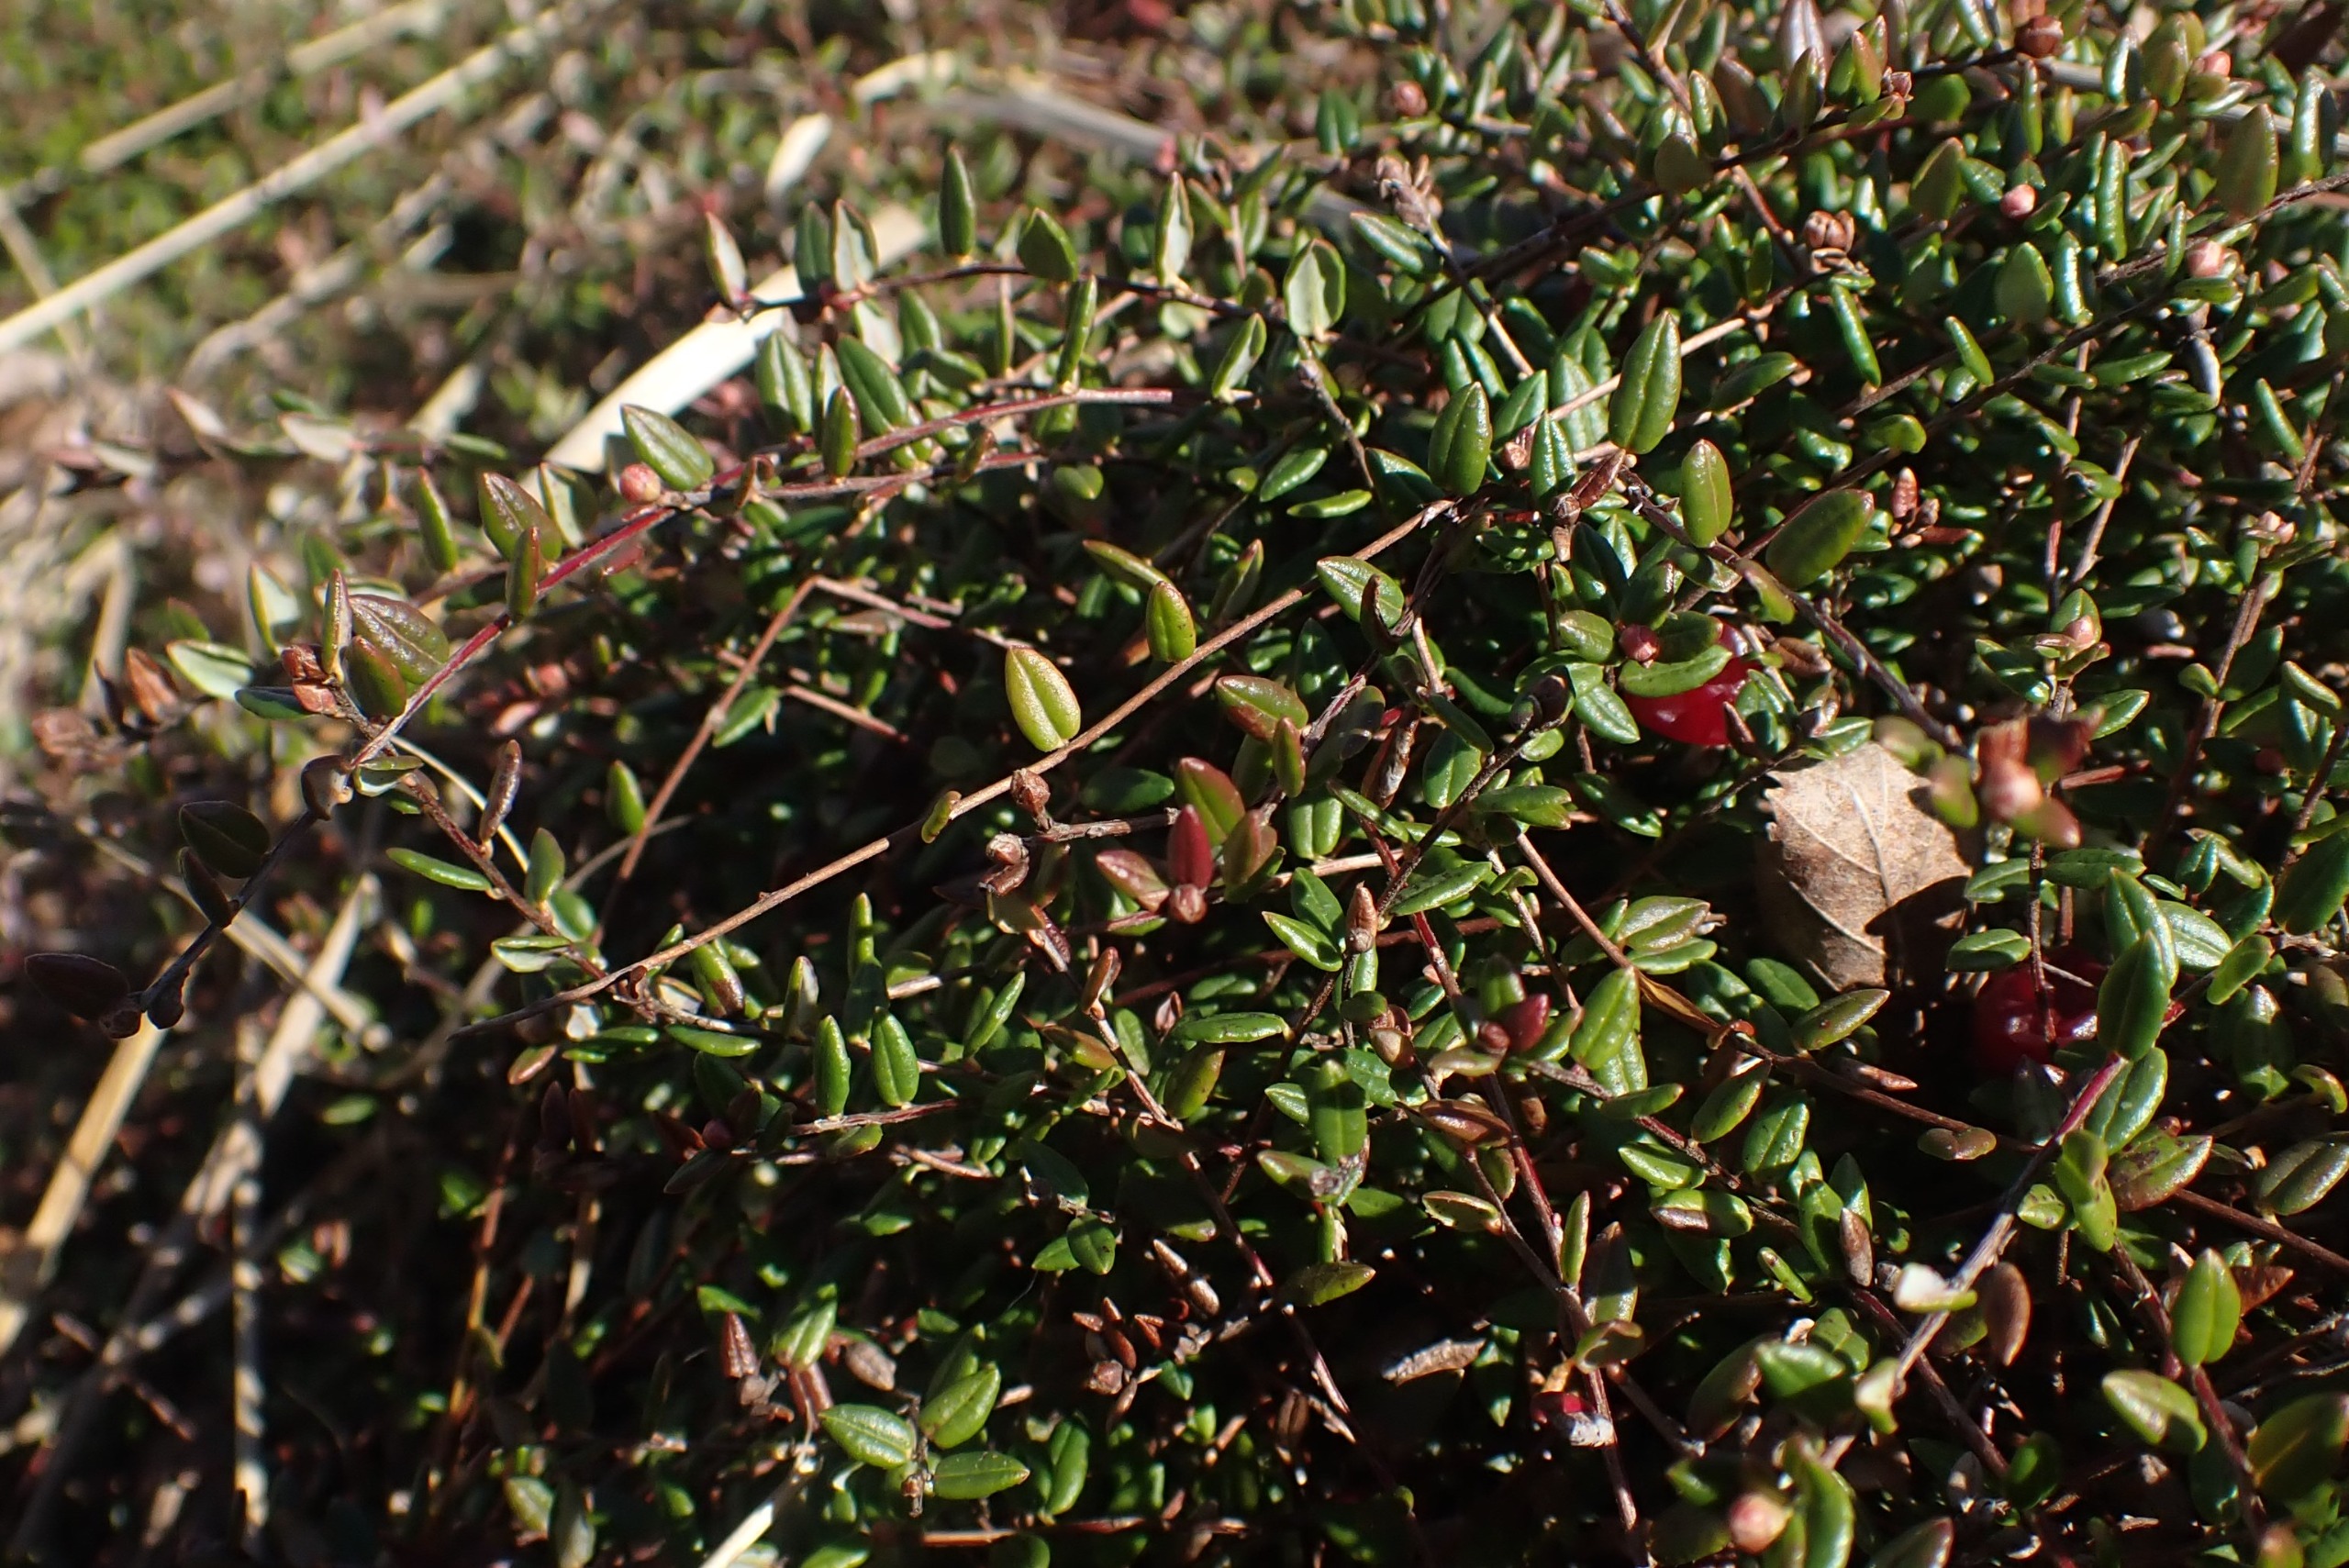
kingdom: Plantae
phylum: Tracheophyta
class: Magnoliopsida
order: Ericales
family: Ericaceae
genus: Vaccinium
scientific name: Vaccinium oxycoccos
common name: Tranebær
